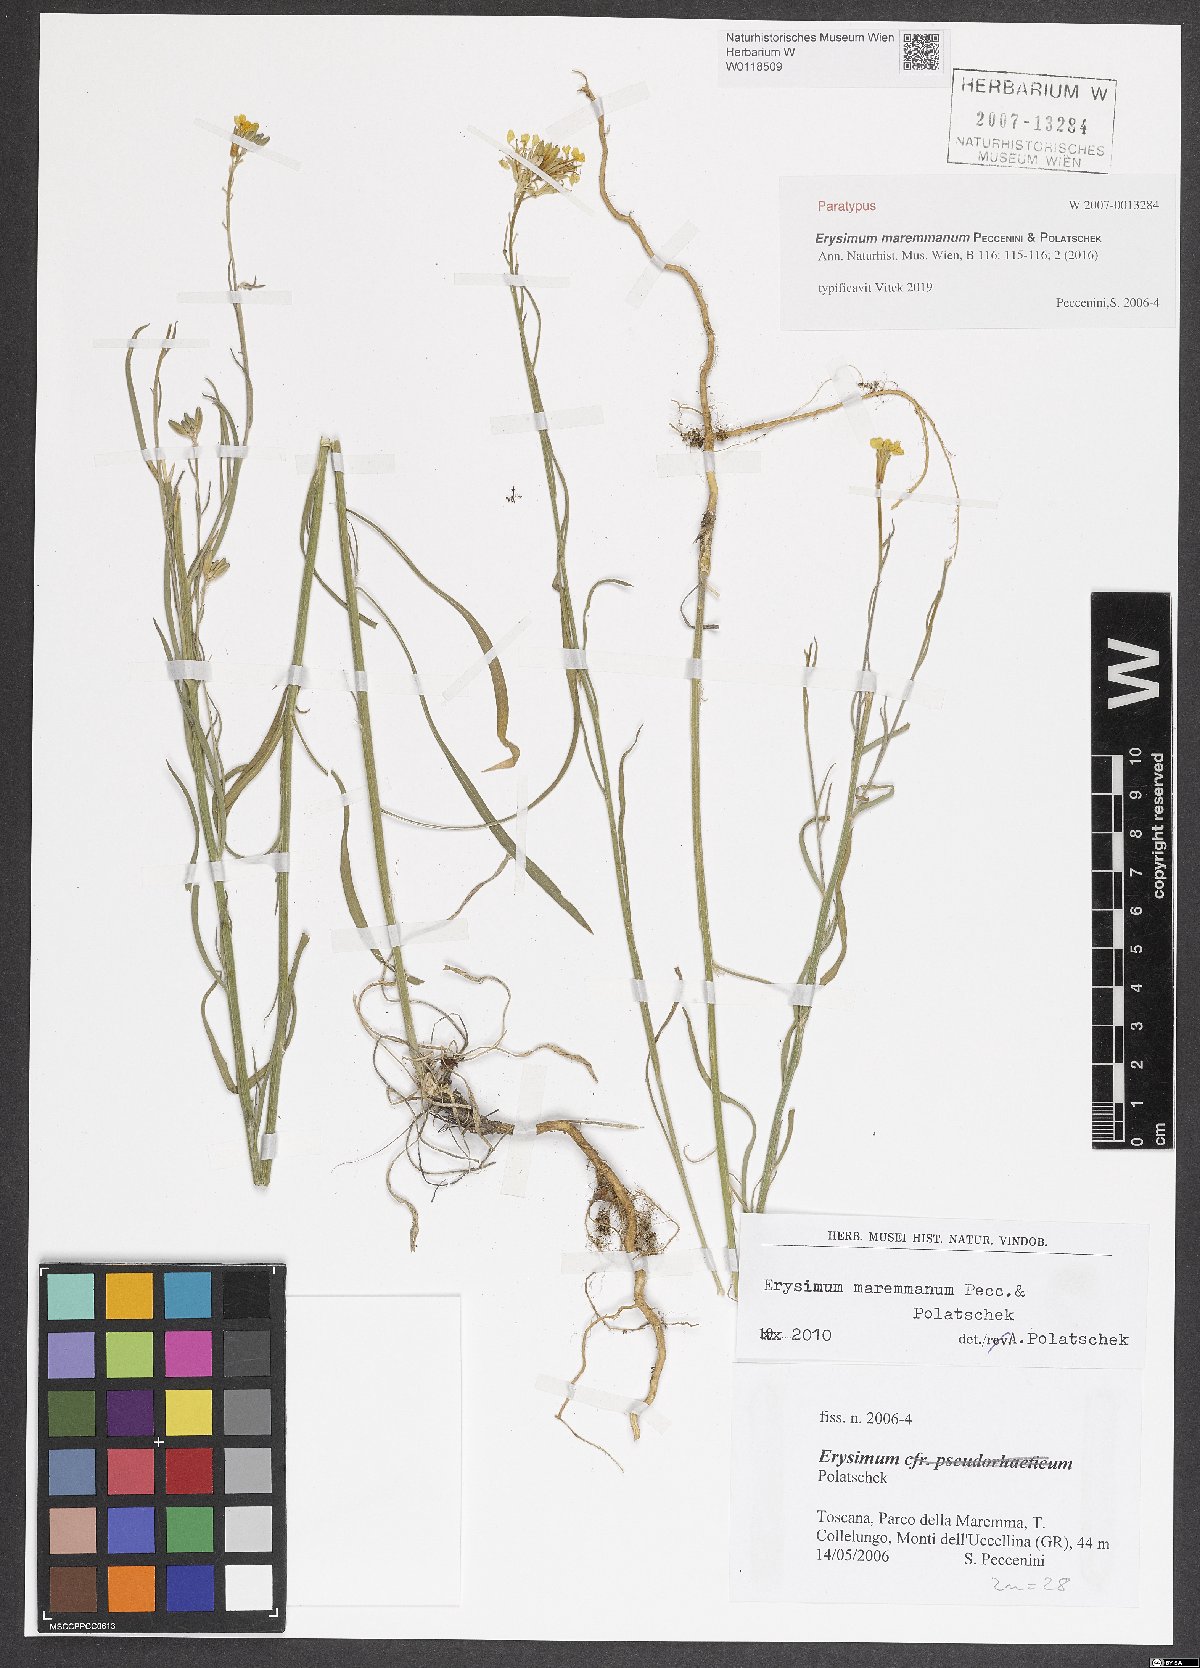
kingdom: Plantae
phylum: Tracheophyta
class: Magnoliopsida
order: Brassicales
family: Brassicaceae
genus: Erysimum
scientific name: Erysimum maremmanum
